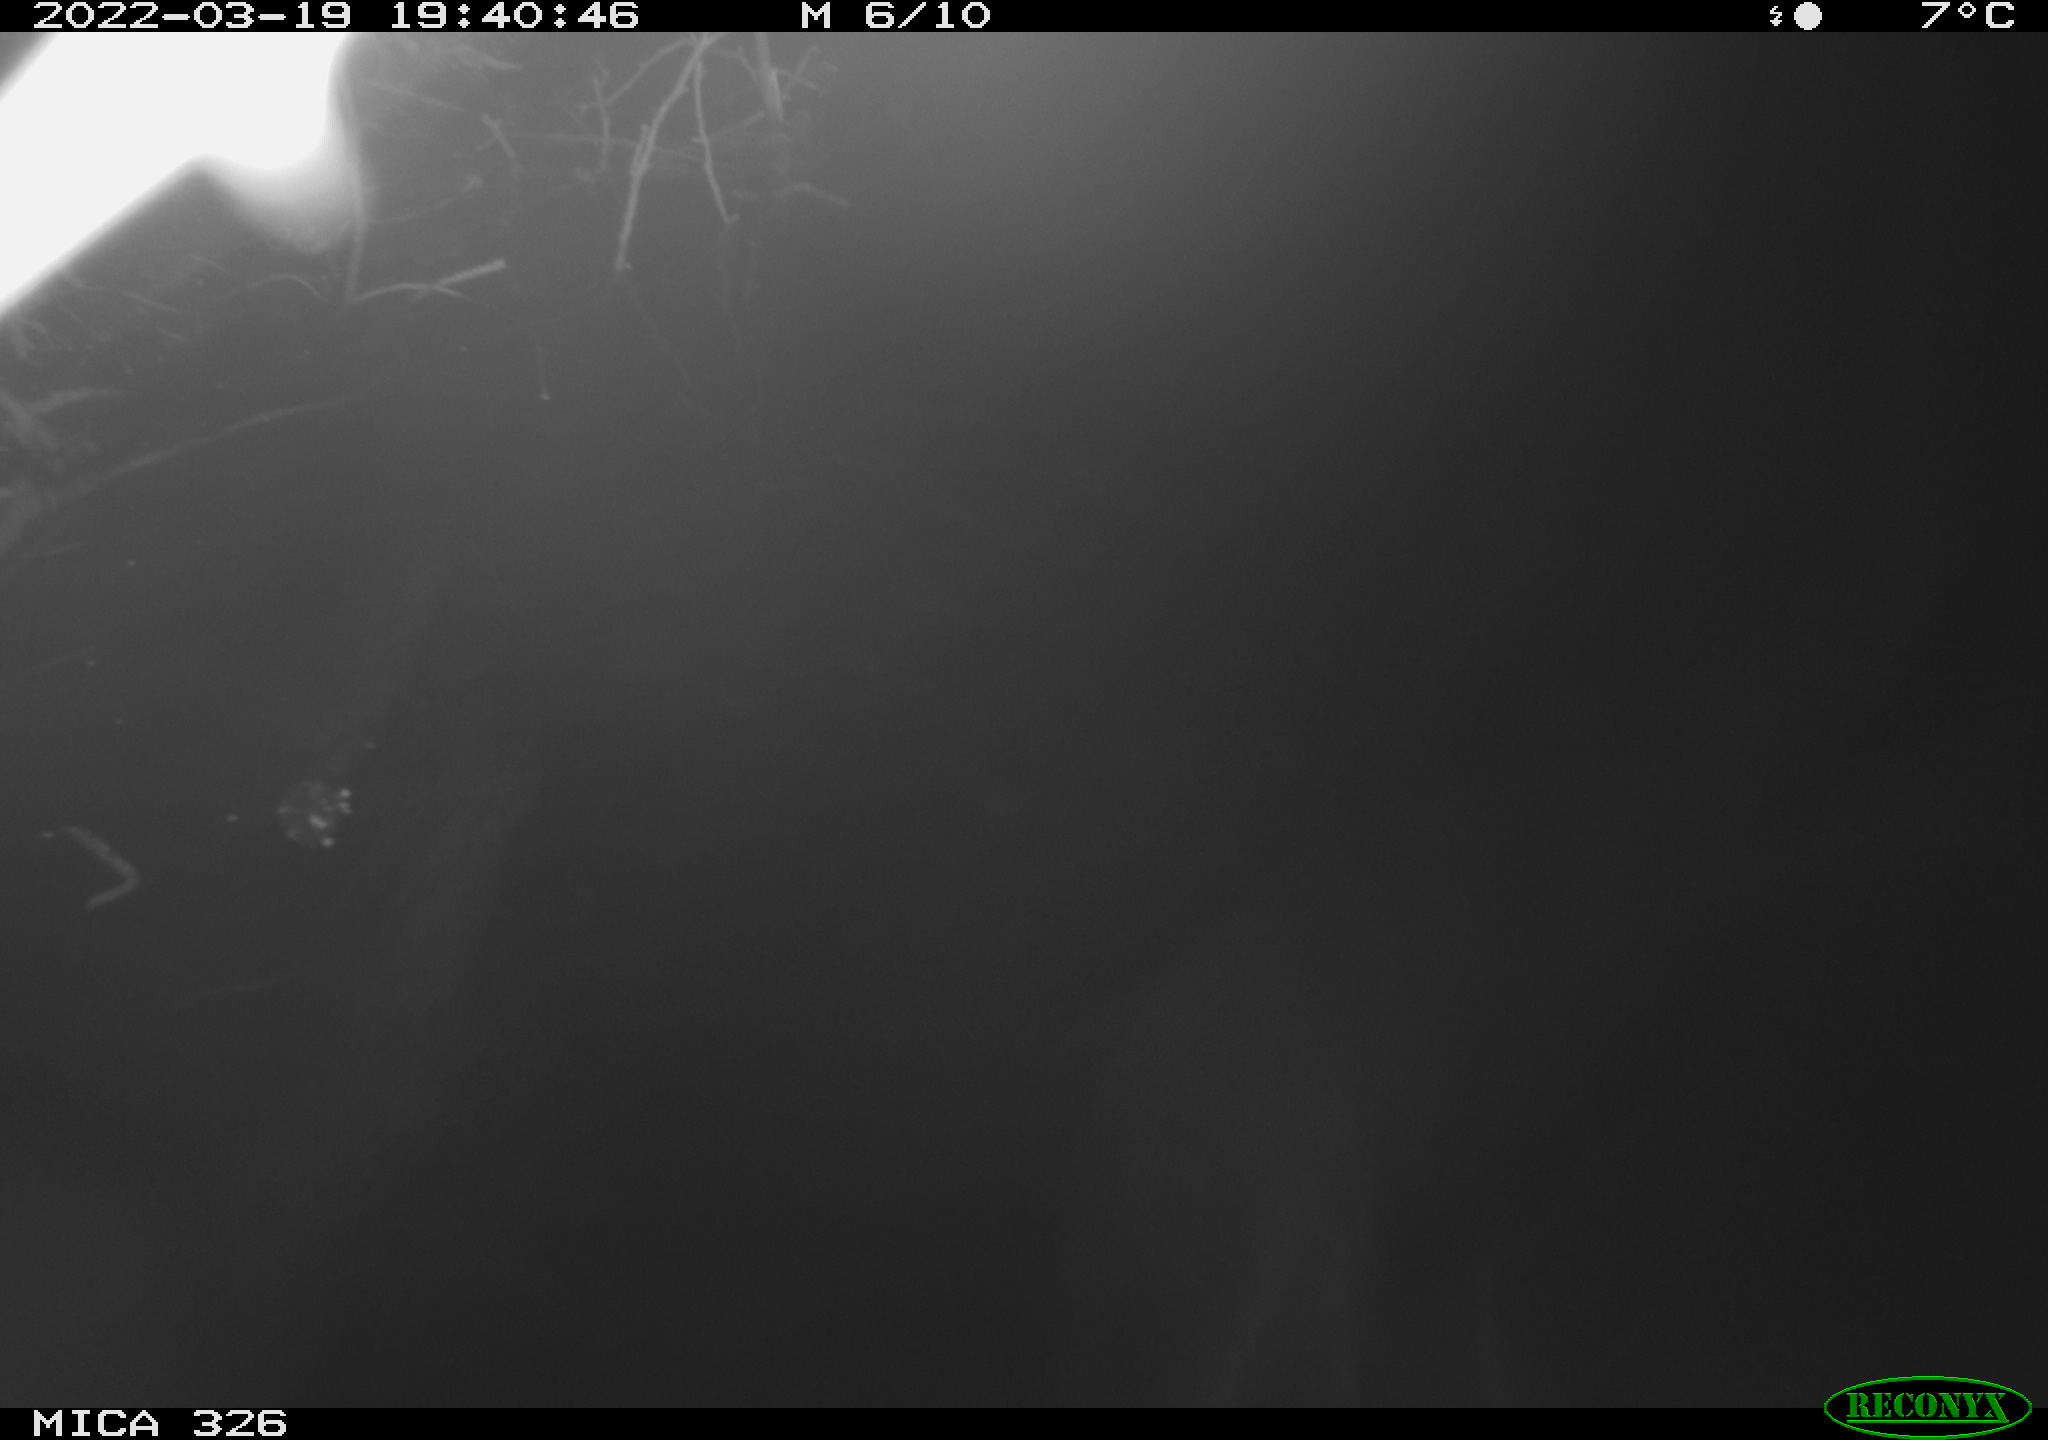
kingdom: Animalia
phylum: Chordata
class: Mammalia
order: Rodentia
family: Muridae
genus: Rattus
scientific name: Rattus norvegicus
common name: Brown rat
